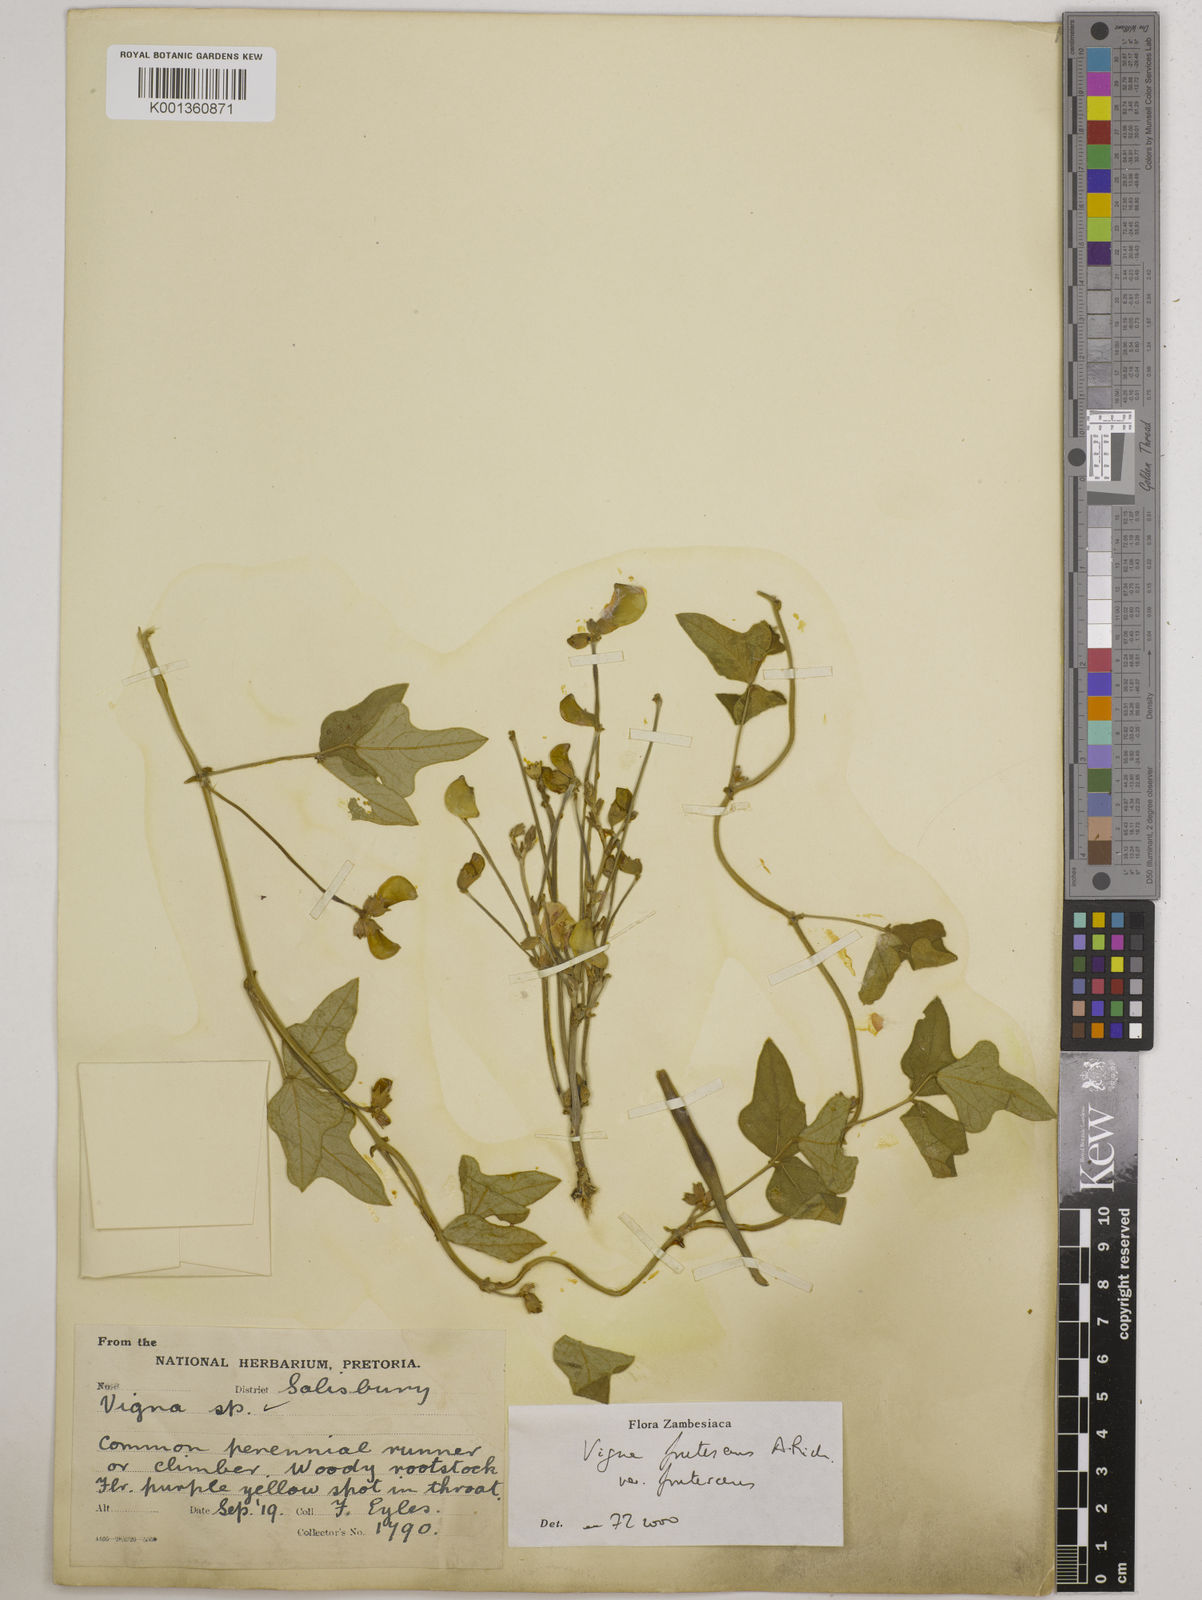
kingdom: Plantae
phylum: Tracheophyta
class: Magnoliopsida
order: Fabales
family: Fabaceae
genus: Vigna
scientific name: Vigna
